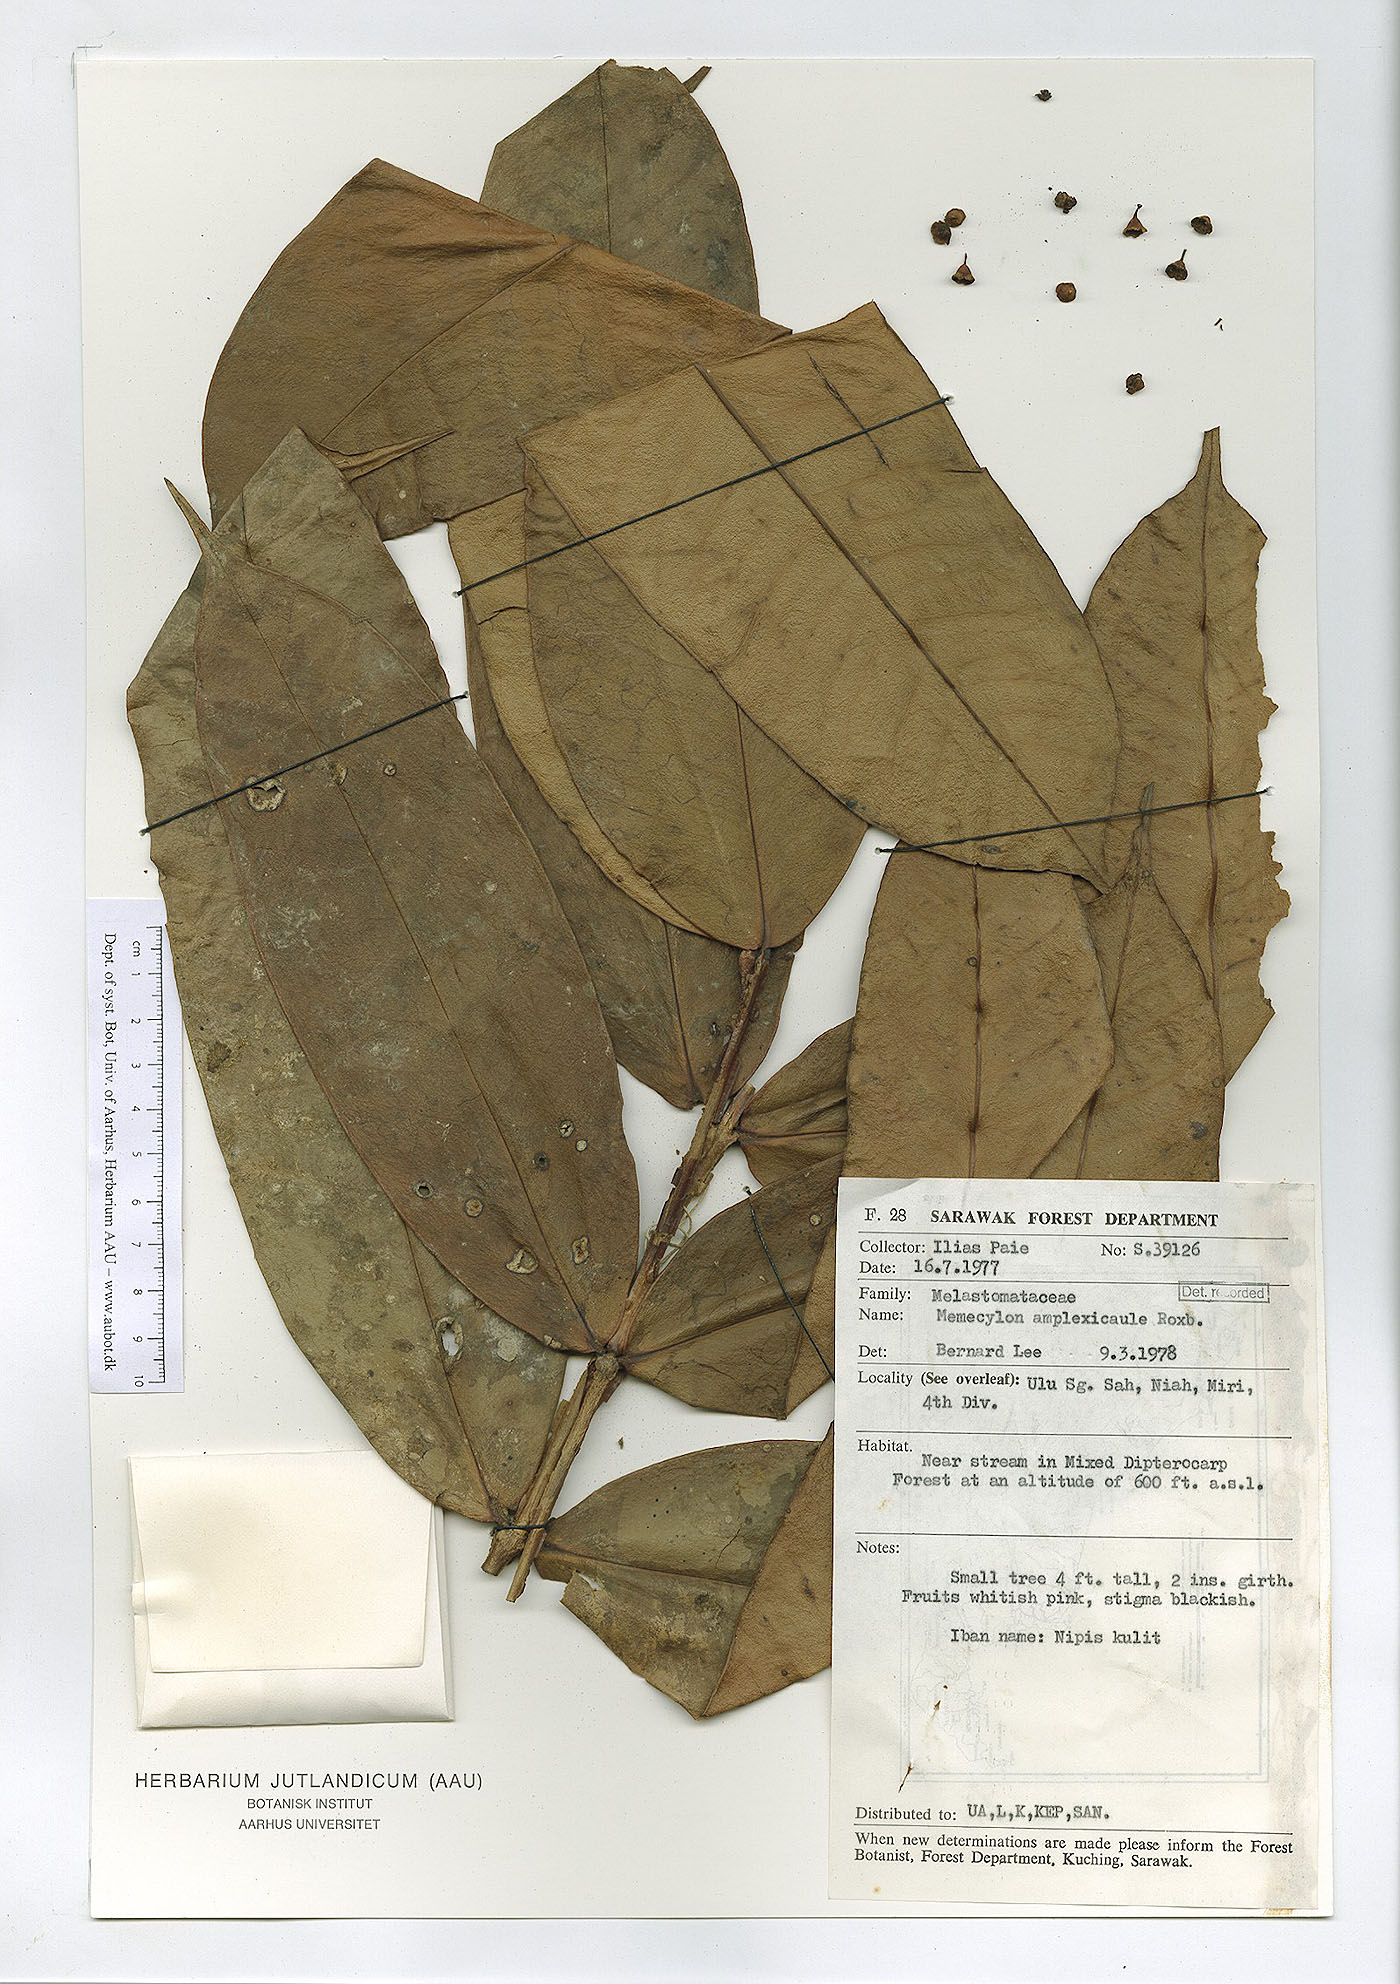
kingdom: Plantae
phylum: Tracheophyta
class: Magnoliopsida
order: Myrtales
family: Melastomataceae
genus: Memecylon
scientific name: Memecylon amplexicaule
